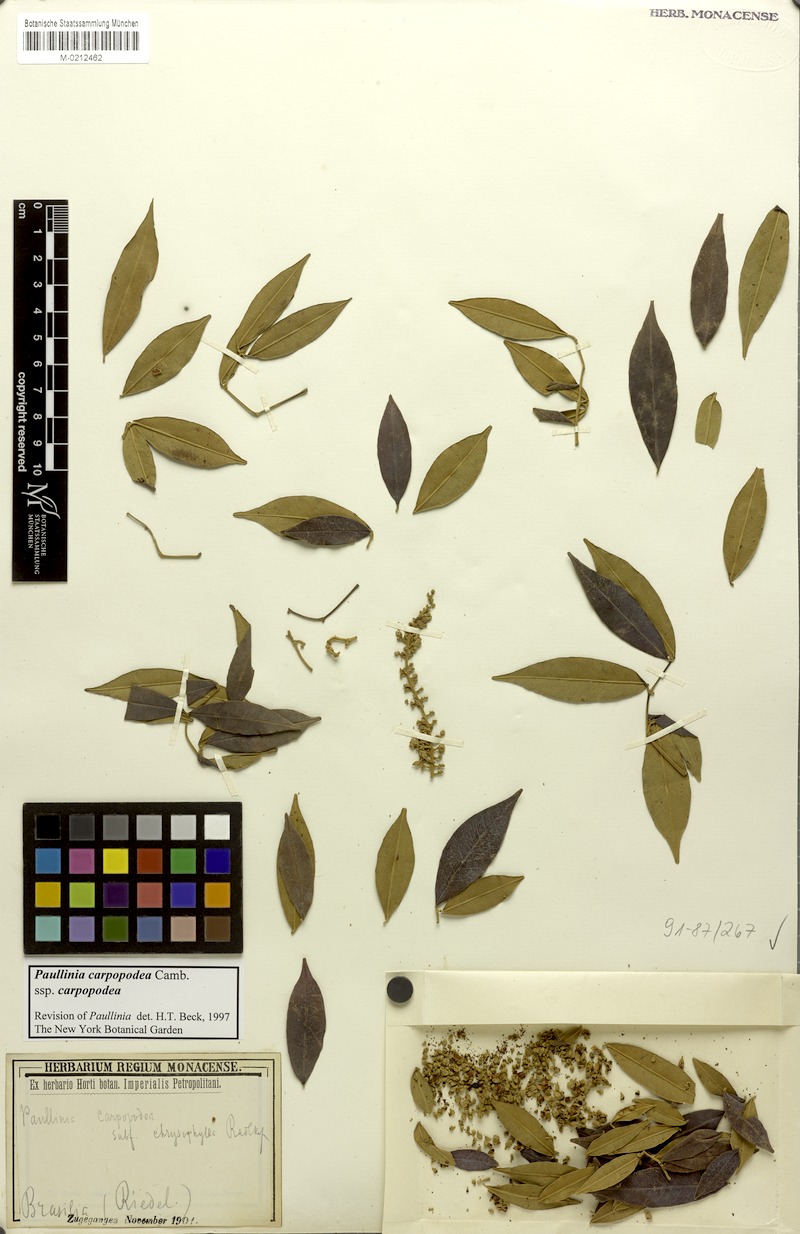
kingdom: Plantae
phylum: Tracheophyta
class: Magnoliopsida
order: Sapindales
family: Sapindaceae
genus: Paullinia
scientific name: Paullinia carpopoda
